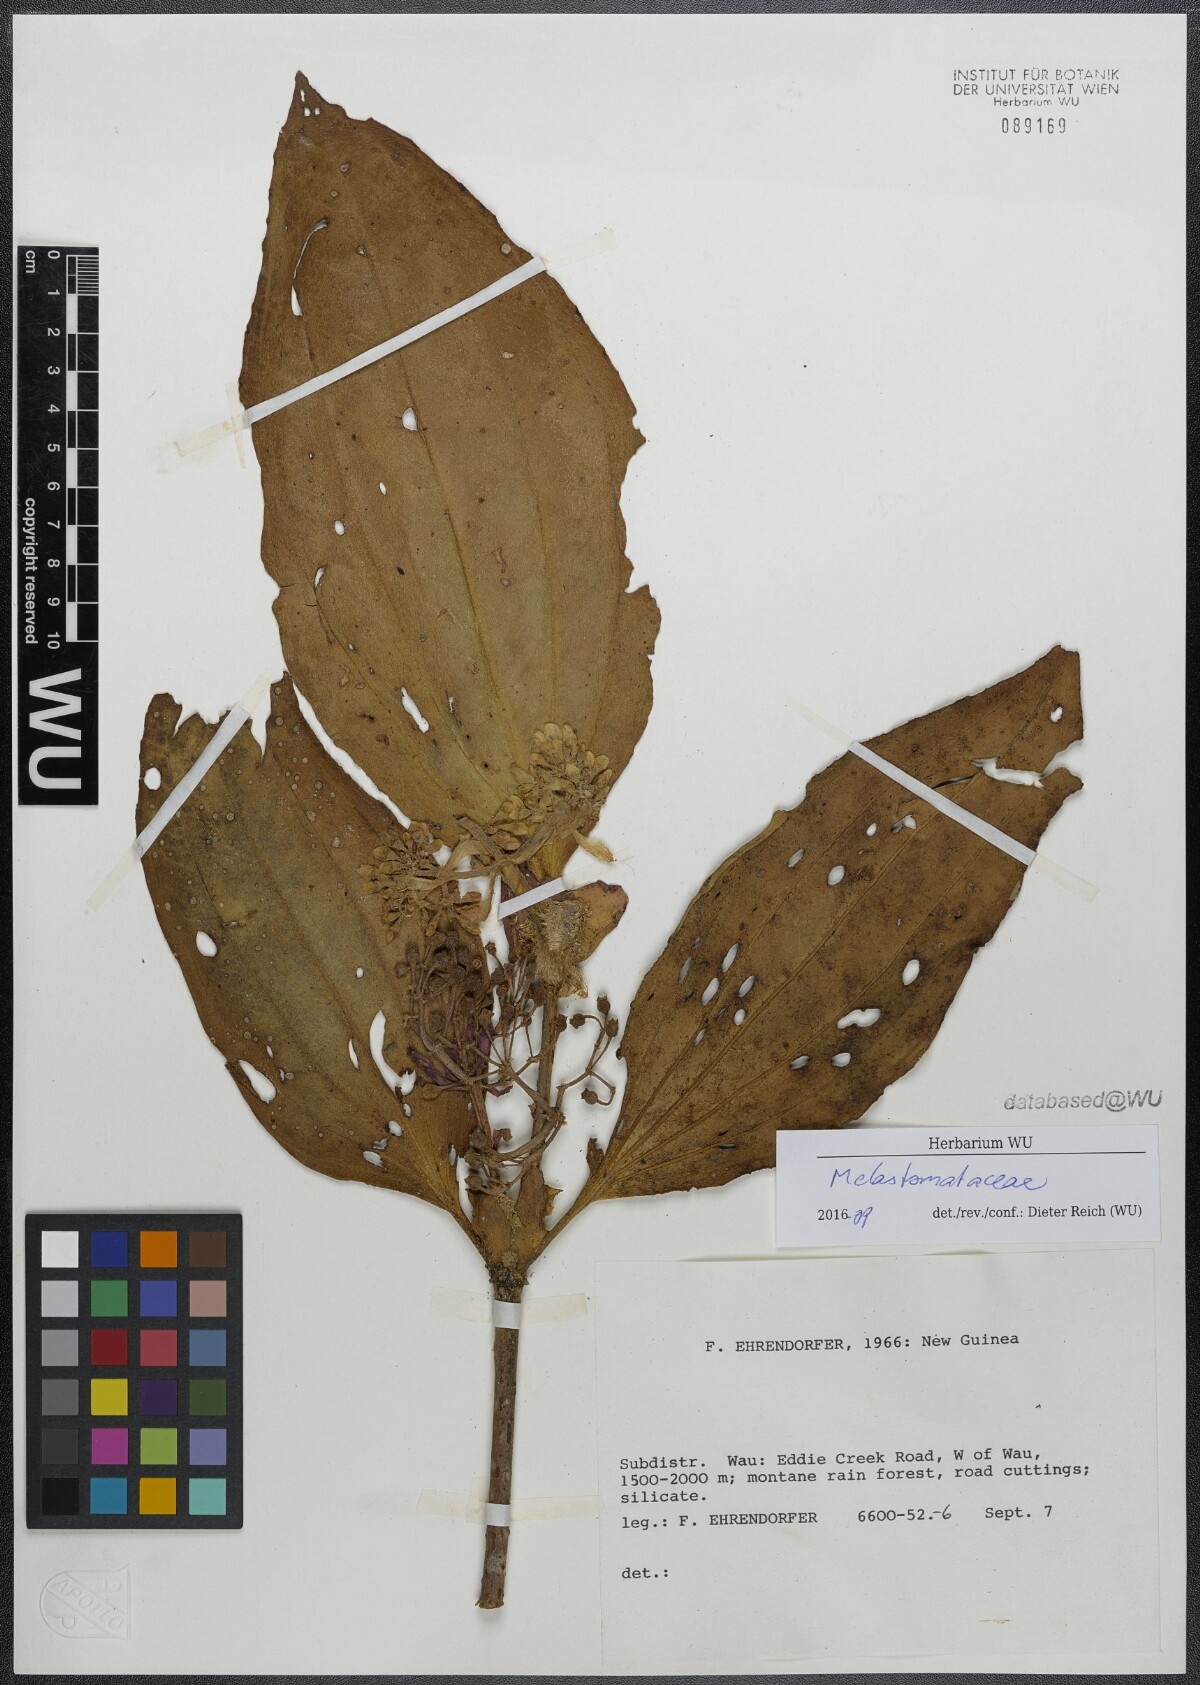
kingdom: Plantae
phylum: Tracheophyta
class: Magnoliopsida
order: Myrtales
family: Melastomataceae
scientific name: Melastomataceae
